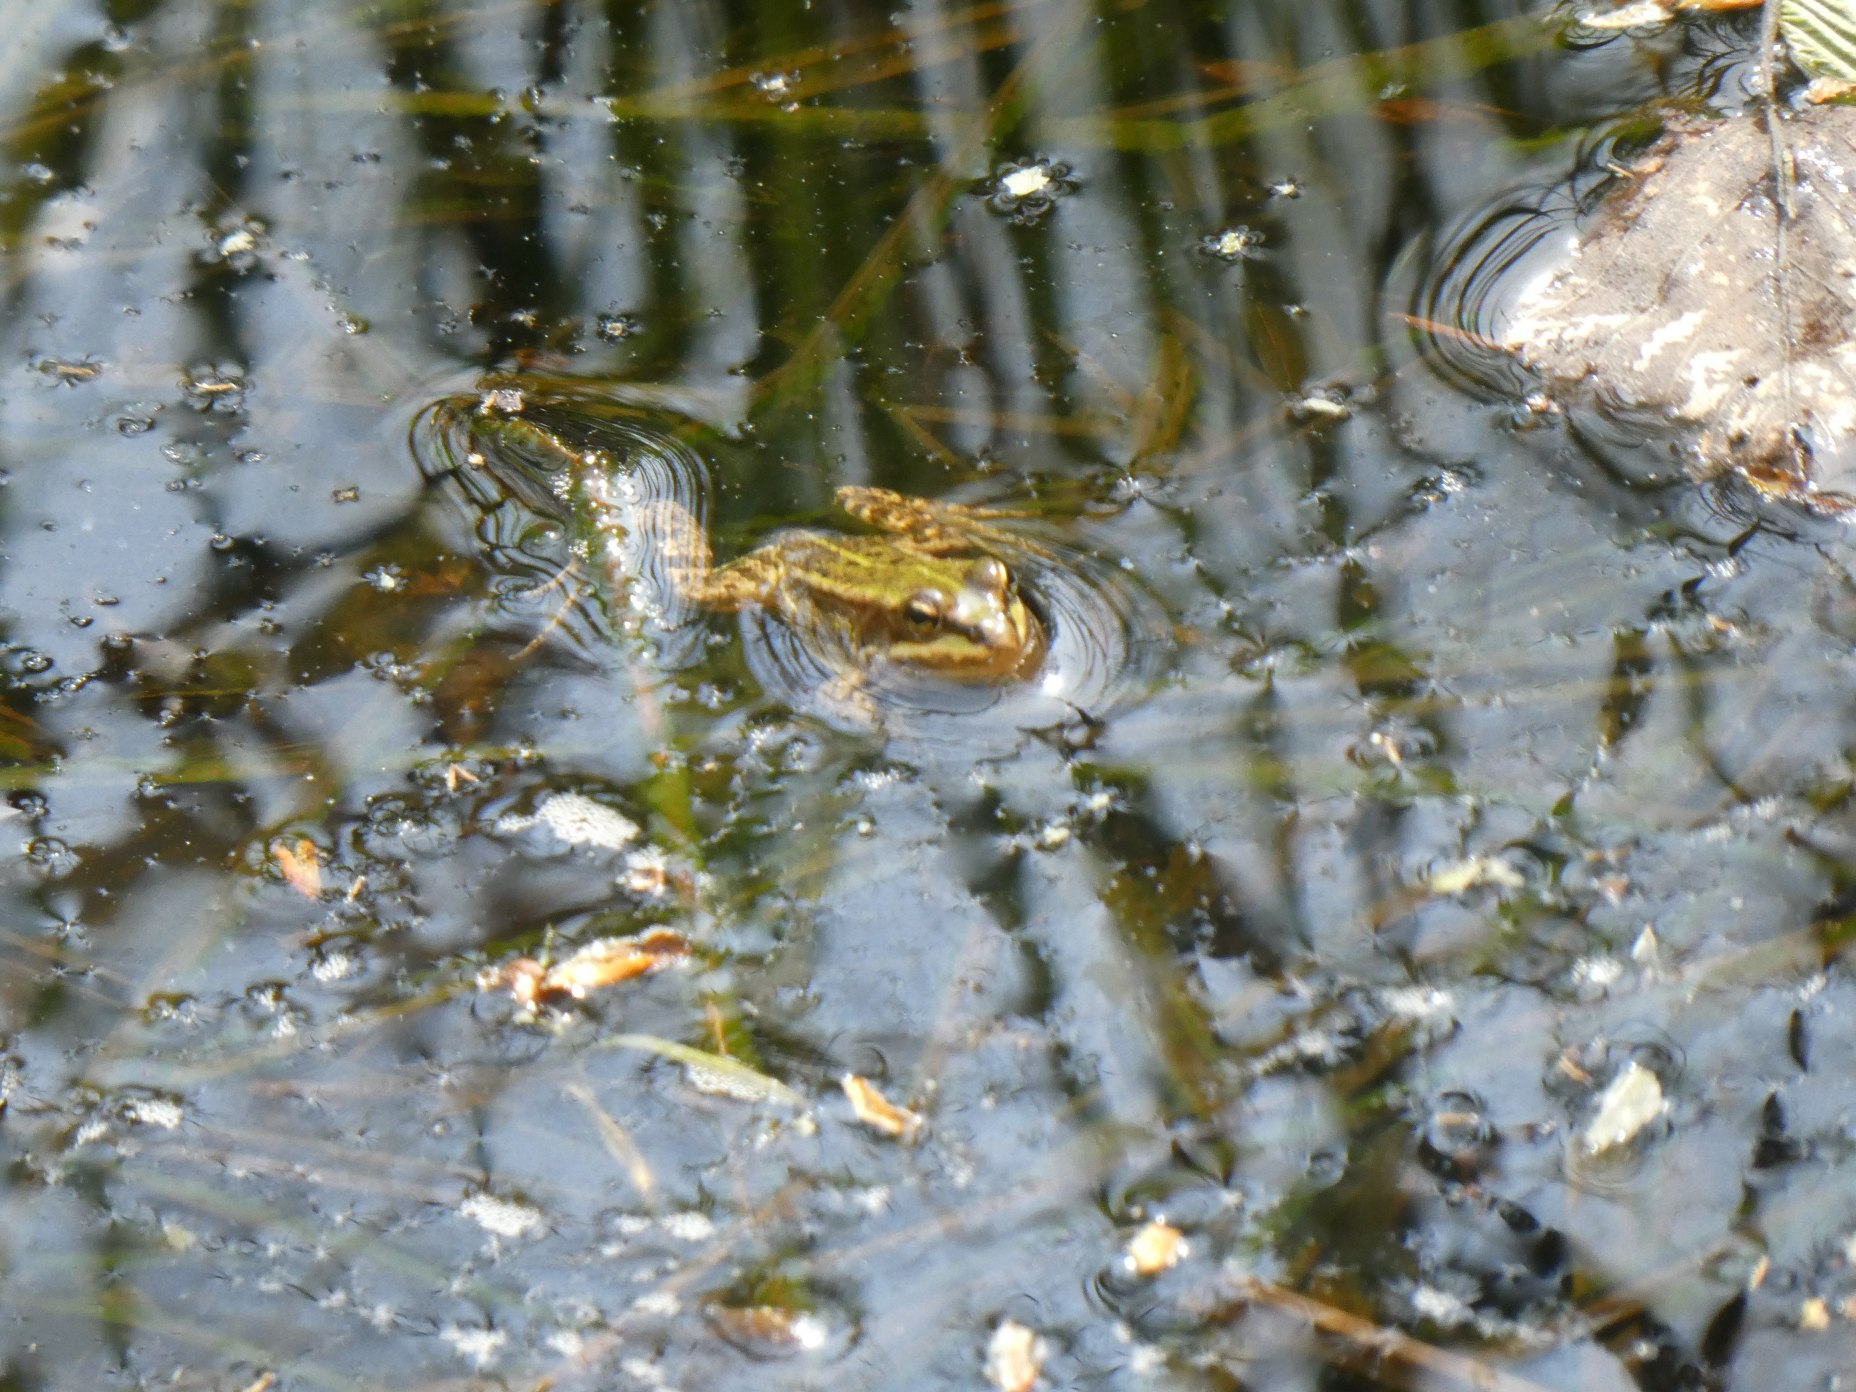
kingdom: Animalia
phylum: Chordata
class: Amphibia
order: Anura
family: Ranidae
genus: Pelophylax
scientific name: Pelophylax lessonae
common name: Grøn frø
